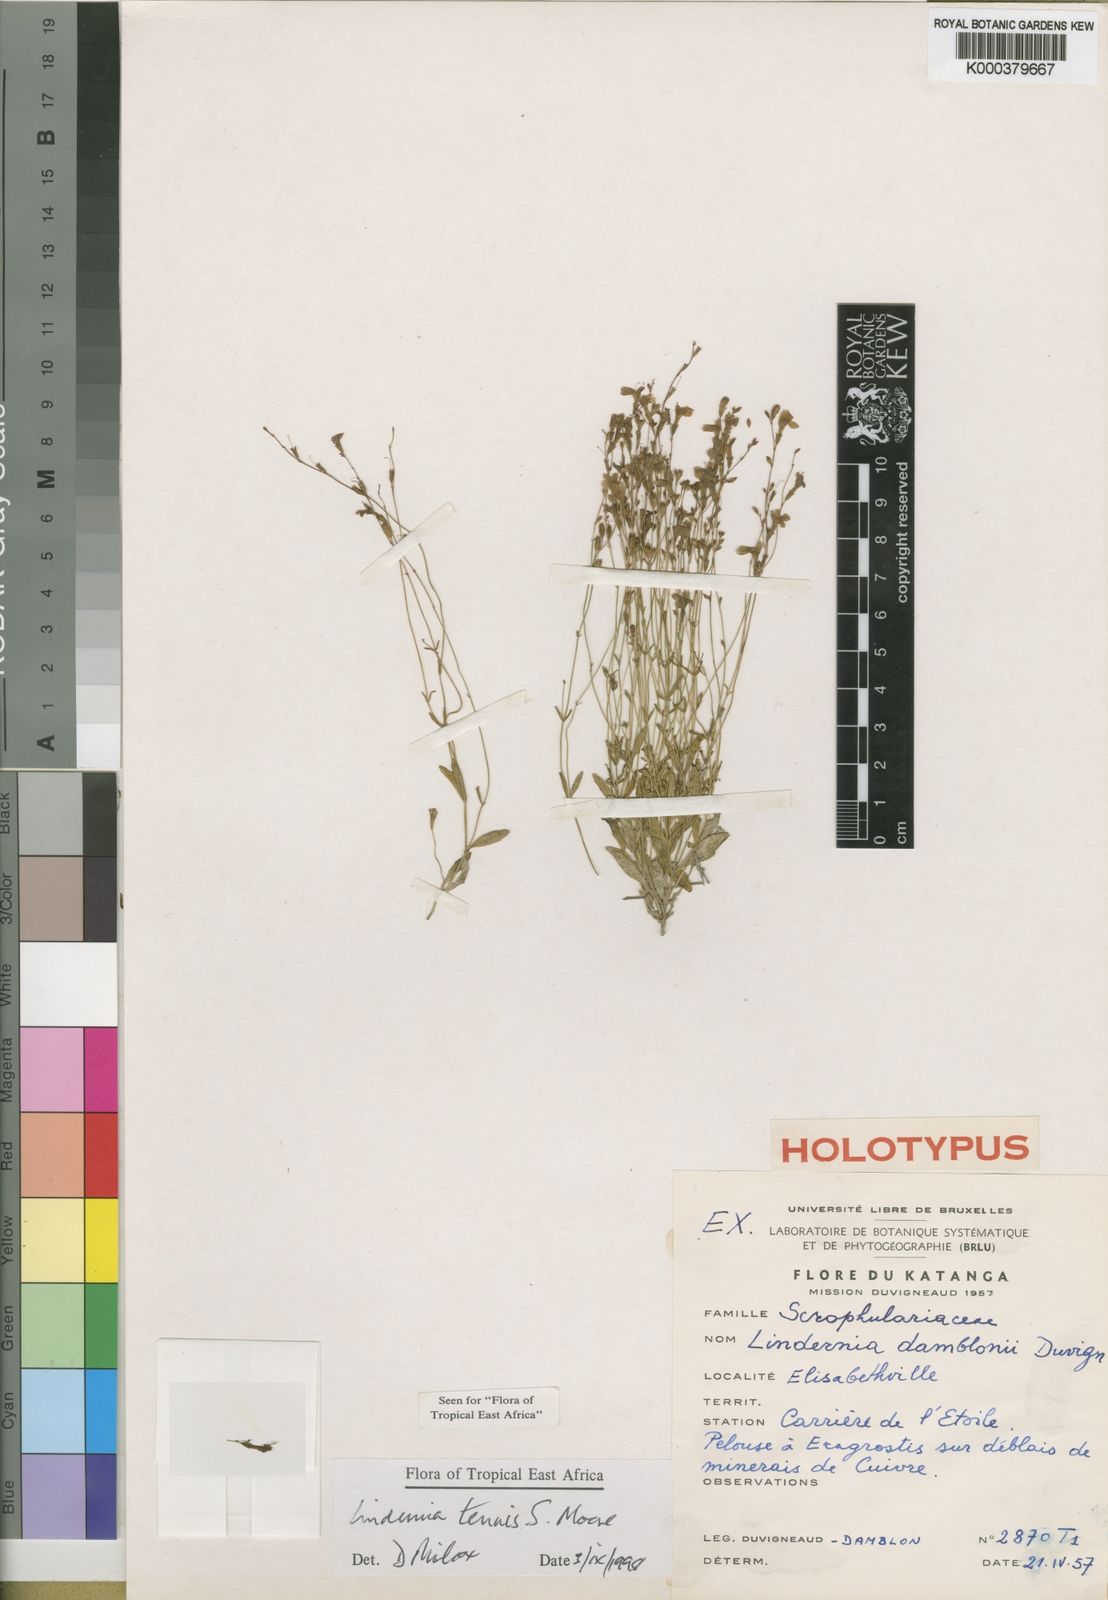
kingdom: Plantae
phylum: Tracheophyta
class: Magnoliopsida
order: Lamiales
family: Linderniaceae
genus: Crepidorhopalon
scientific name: Crepidorhopalon tenuis
